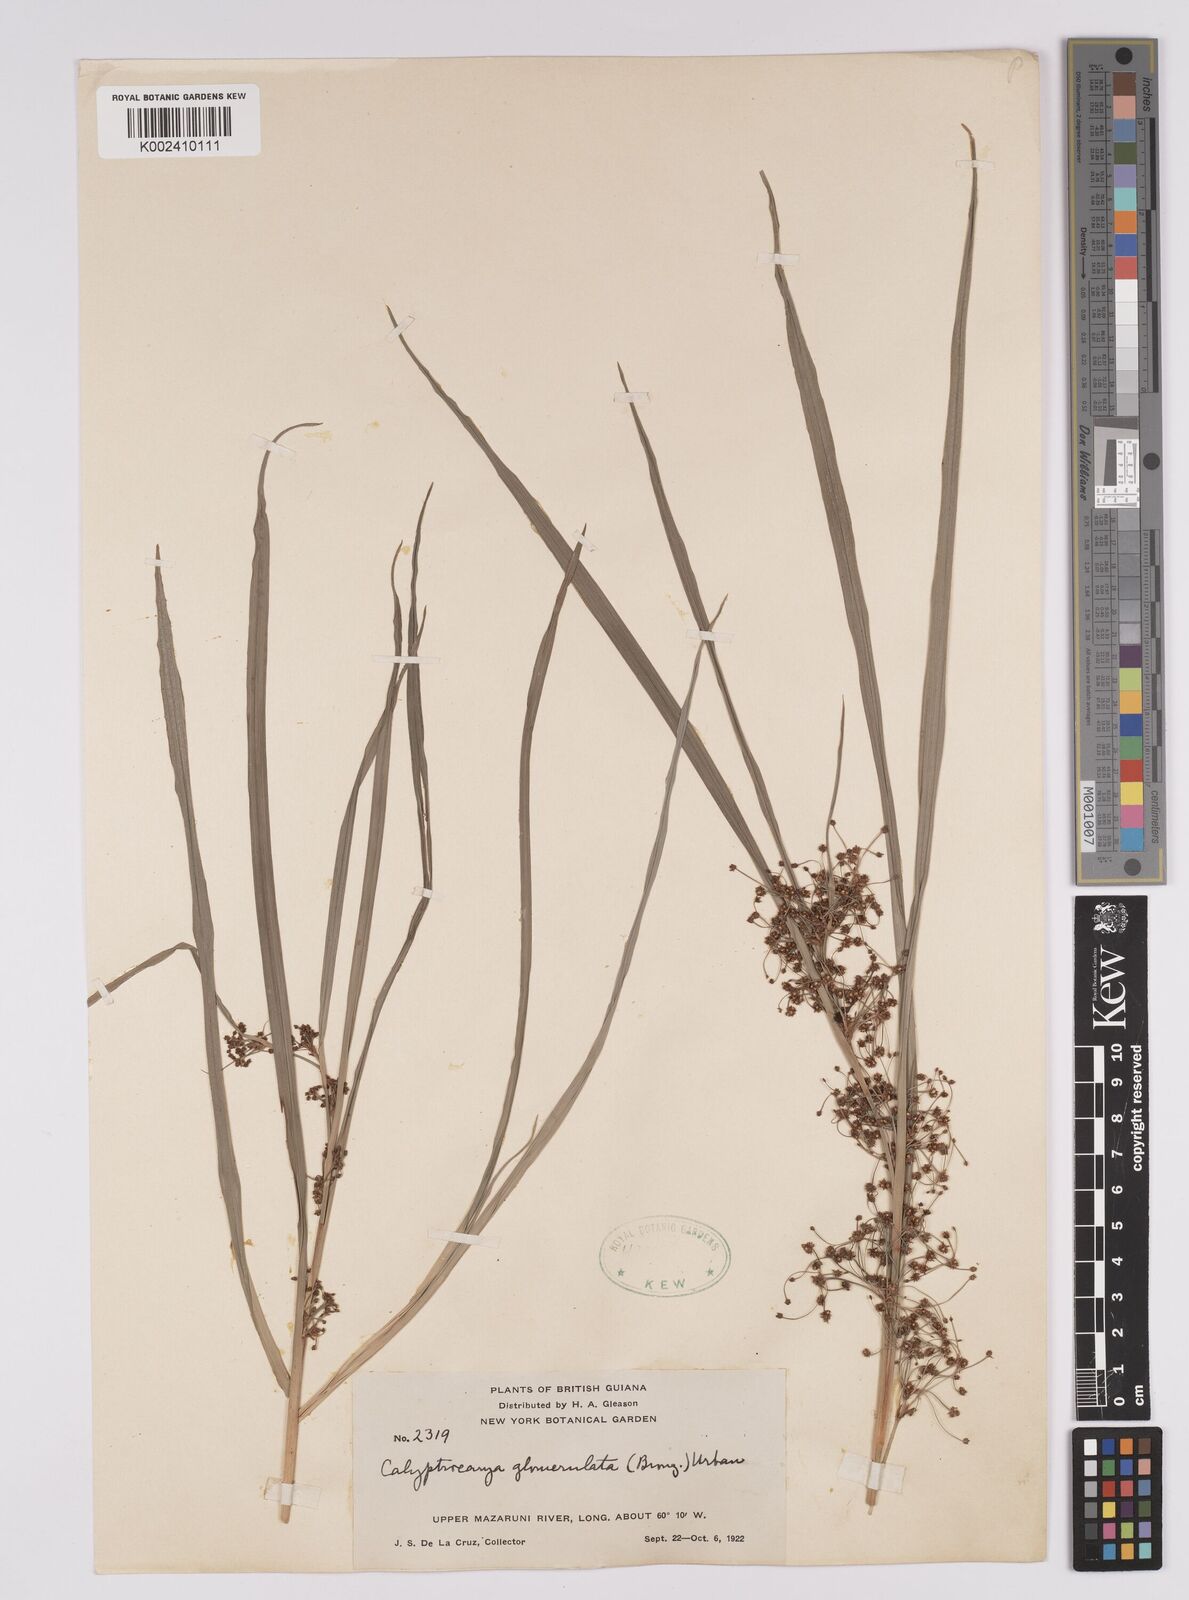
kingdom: Plantae
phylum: Tracheophyta
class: Liliopsida
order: Poales
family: Cyperaceae
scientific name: Cyperaceae
